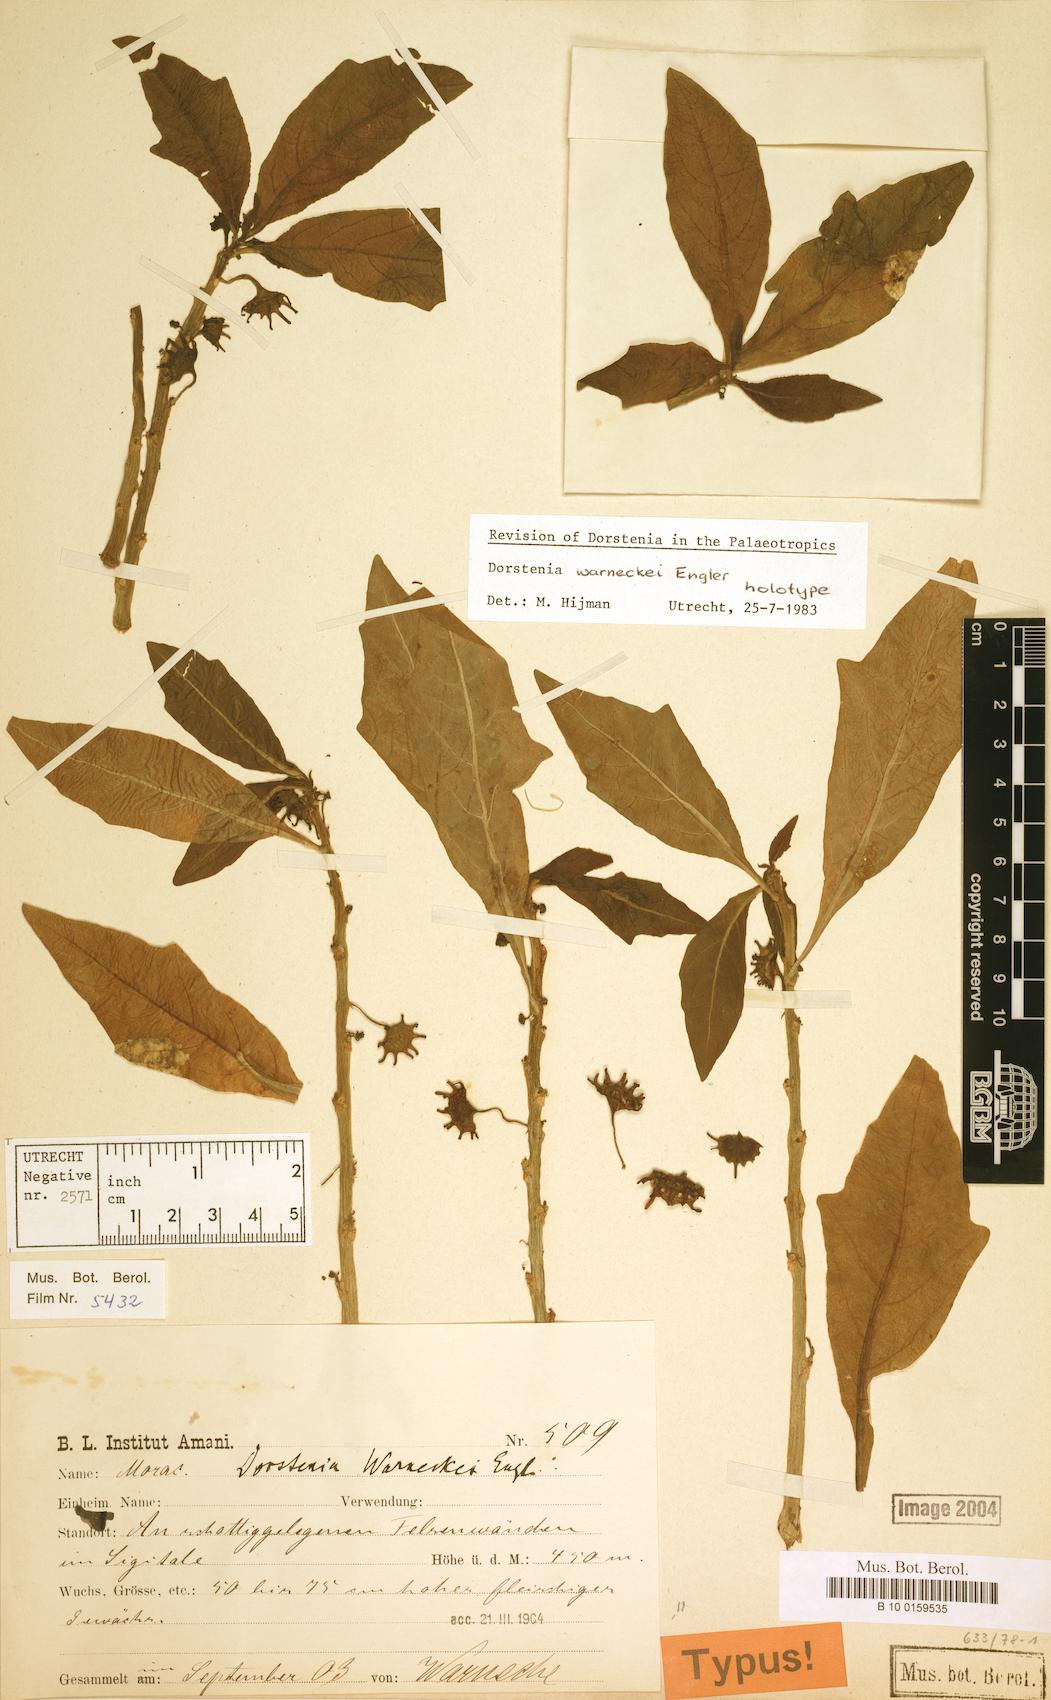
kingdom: Plantae
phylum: Tracheophyta
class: Magnoliopsida
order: Rosales
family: Moraceae
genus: Dorstenia
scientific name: Dorstenia warneckei
